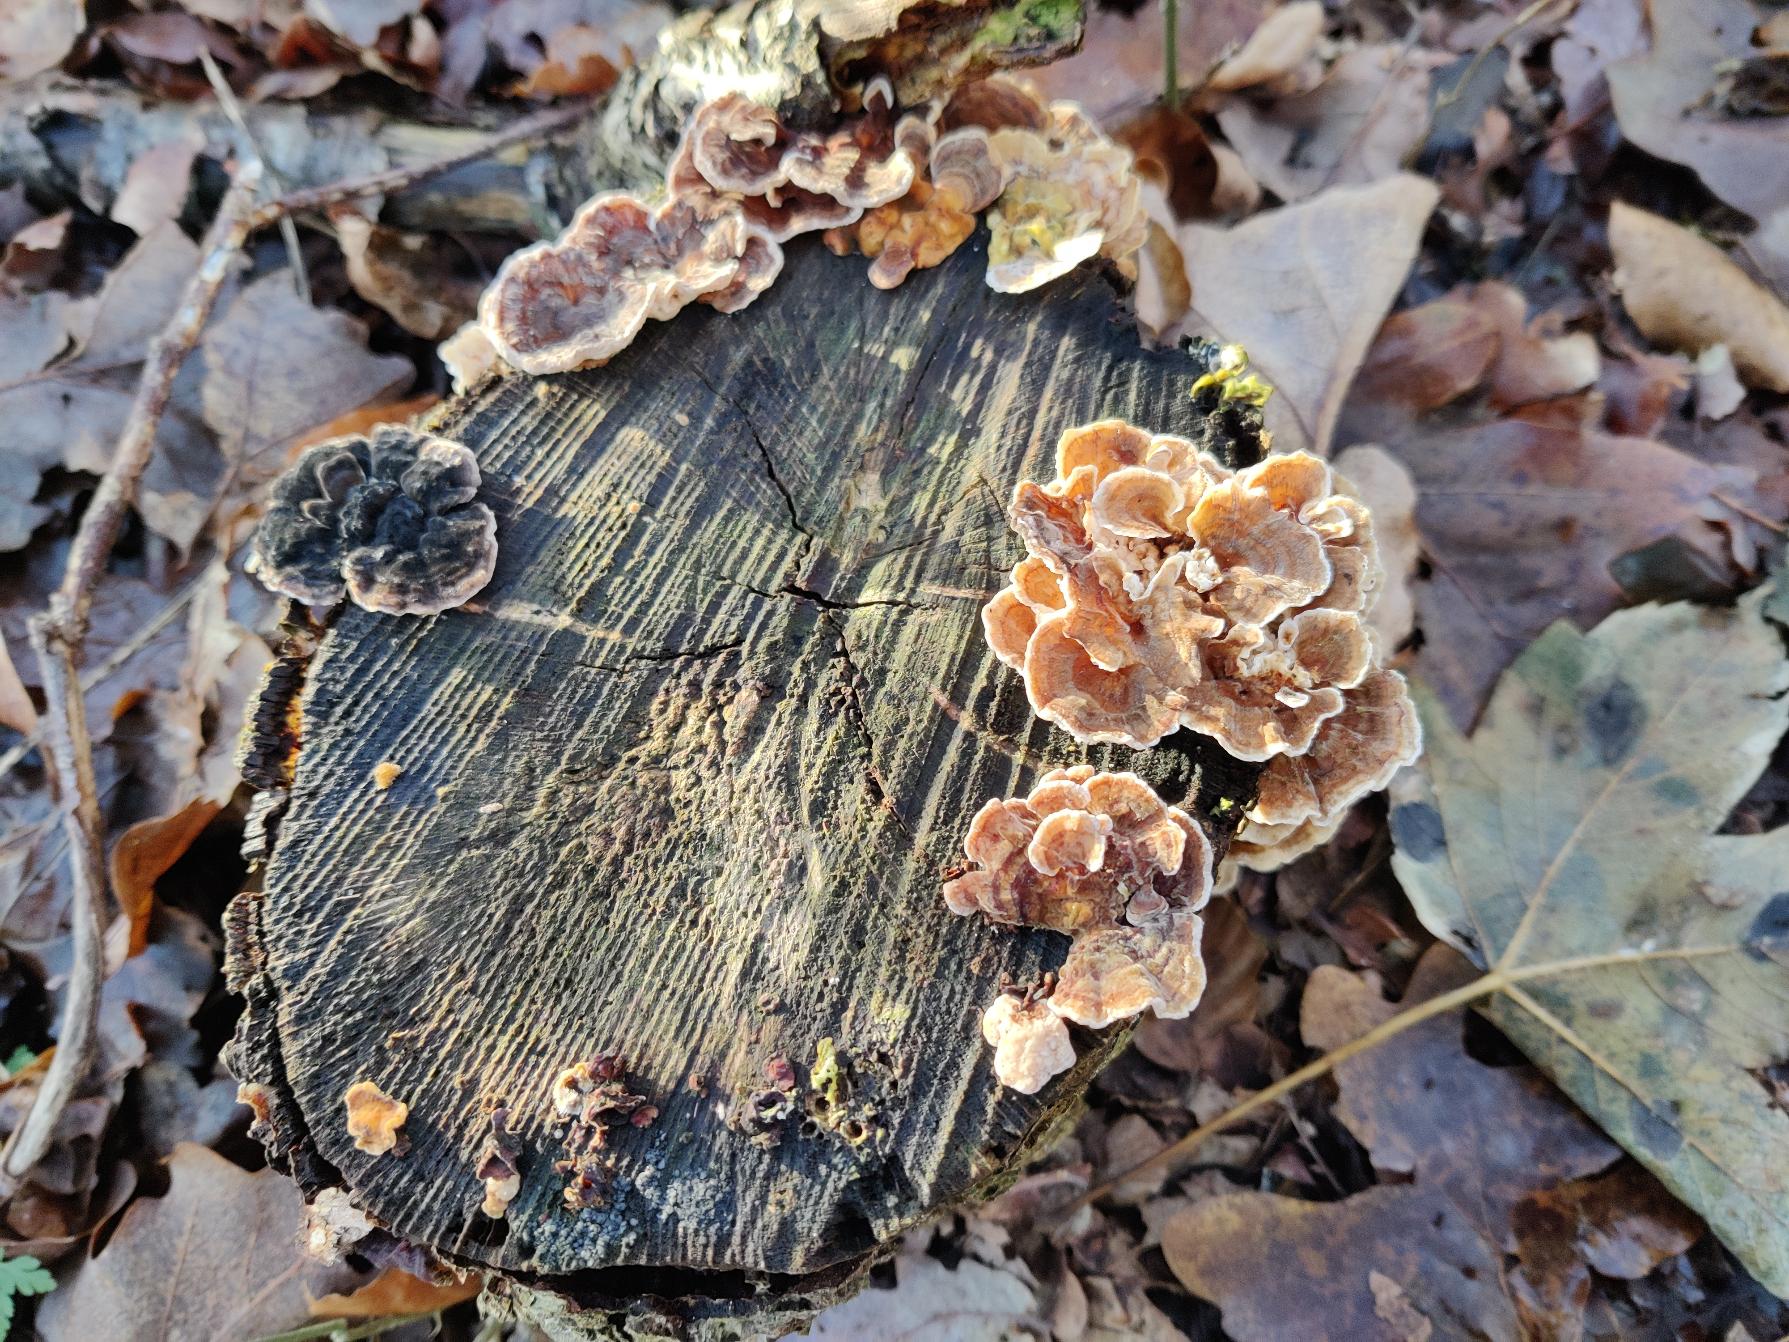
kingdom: Fungi
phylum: Basidiomycota
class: Agaricomycetes
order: Polyporales
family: Polyporaceae
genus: Trametes
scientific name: Trametes versicolor
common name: Broget læderporesvamp
